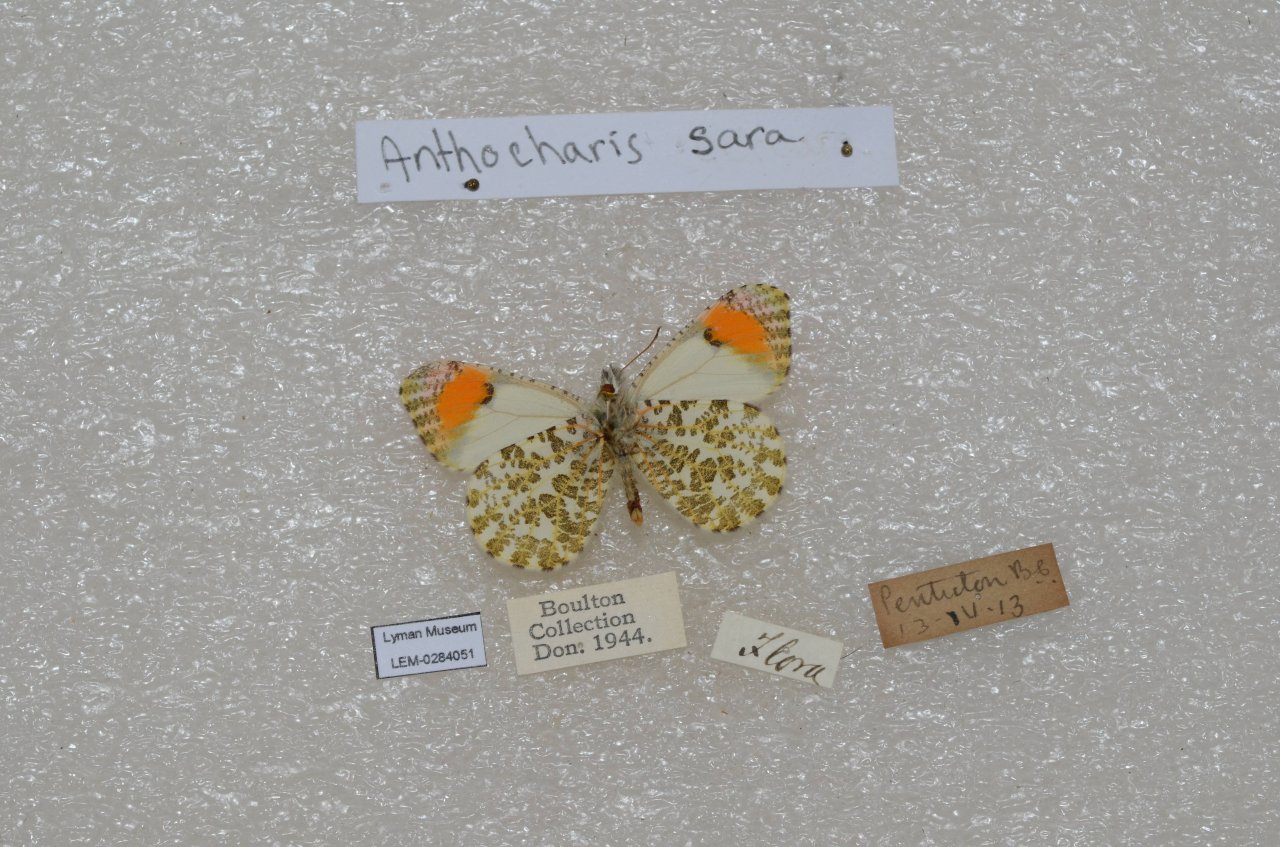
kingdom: Animalia
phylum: Arthropoda
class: Insecta
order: Lepidoptera
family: Pieridae
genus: Anthocharis
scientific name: Anthocharis sara
